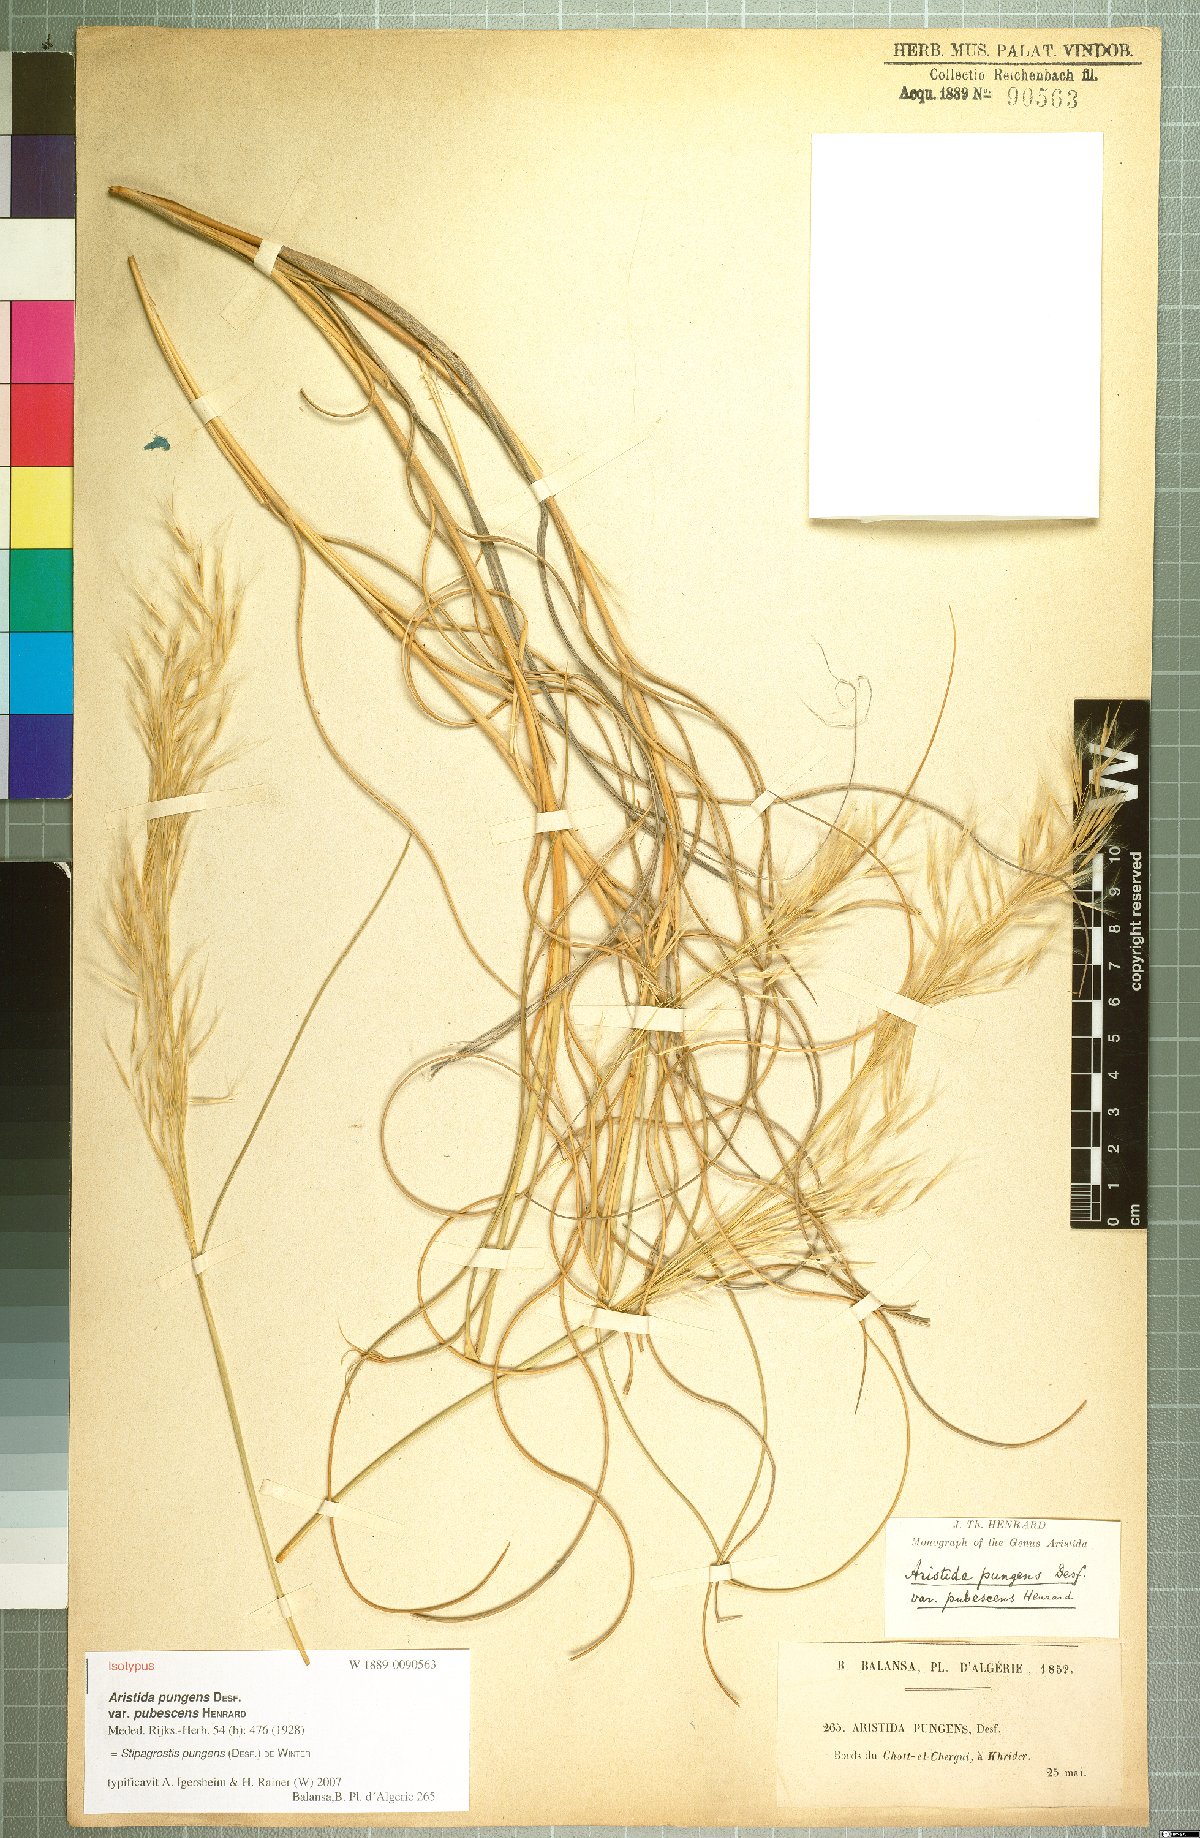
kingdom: Plantae
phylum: Tracheophyta
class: Liliopsida
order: Poales
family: Poaceae
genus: Stipagrostis
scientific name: Stipagrostis pungens
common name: Three-awn grass
